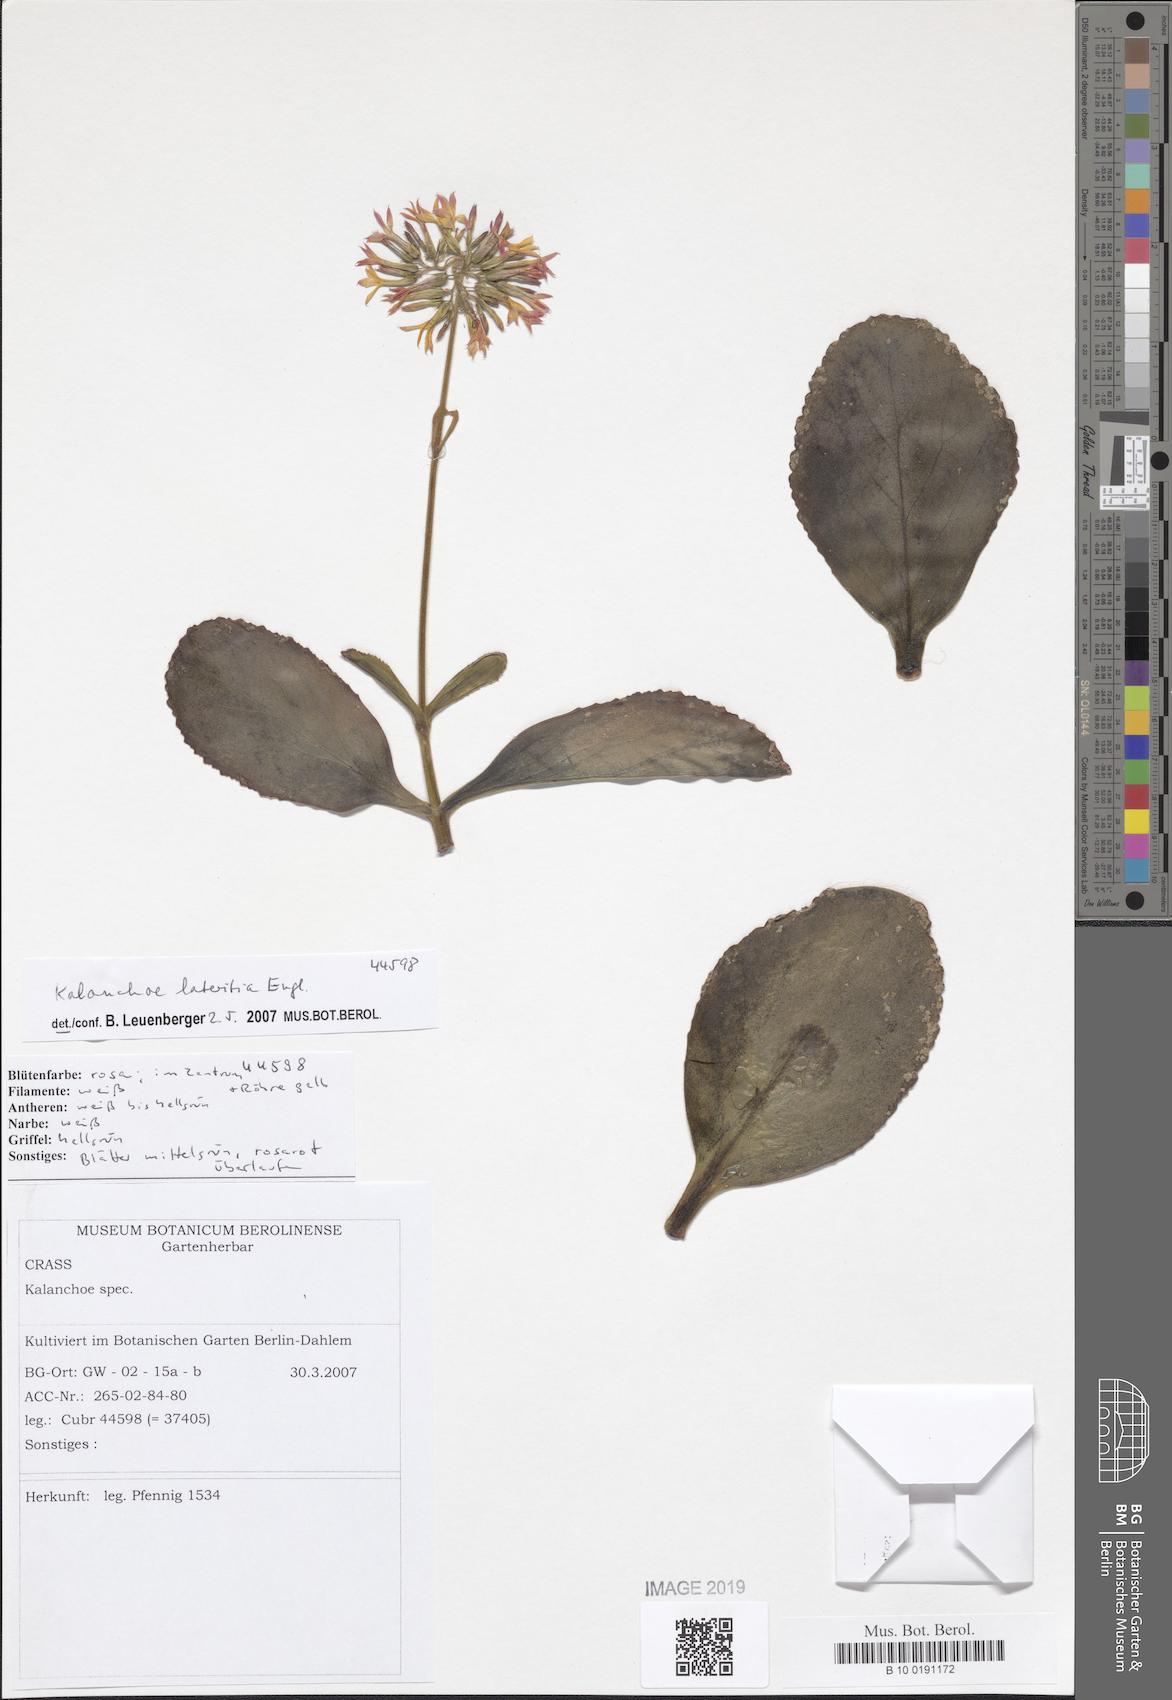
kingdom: Plantae
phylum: Tracheophyta
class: Magnoliopsida
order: Saxifragales
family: Crassulaceae
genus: Kalanchoe
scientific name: Kalanchoe lateritia
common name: Kalanchoe
